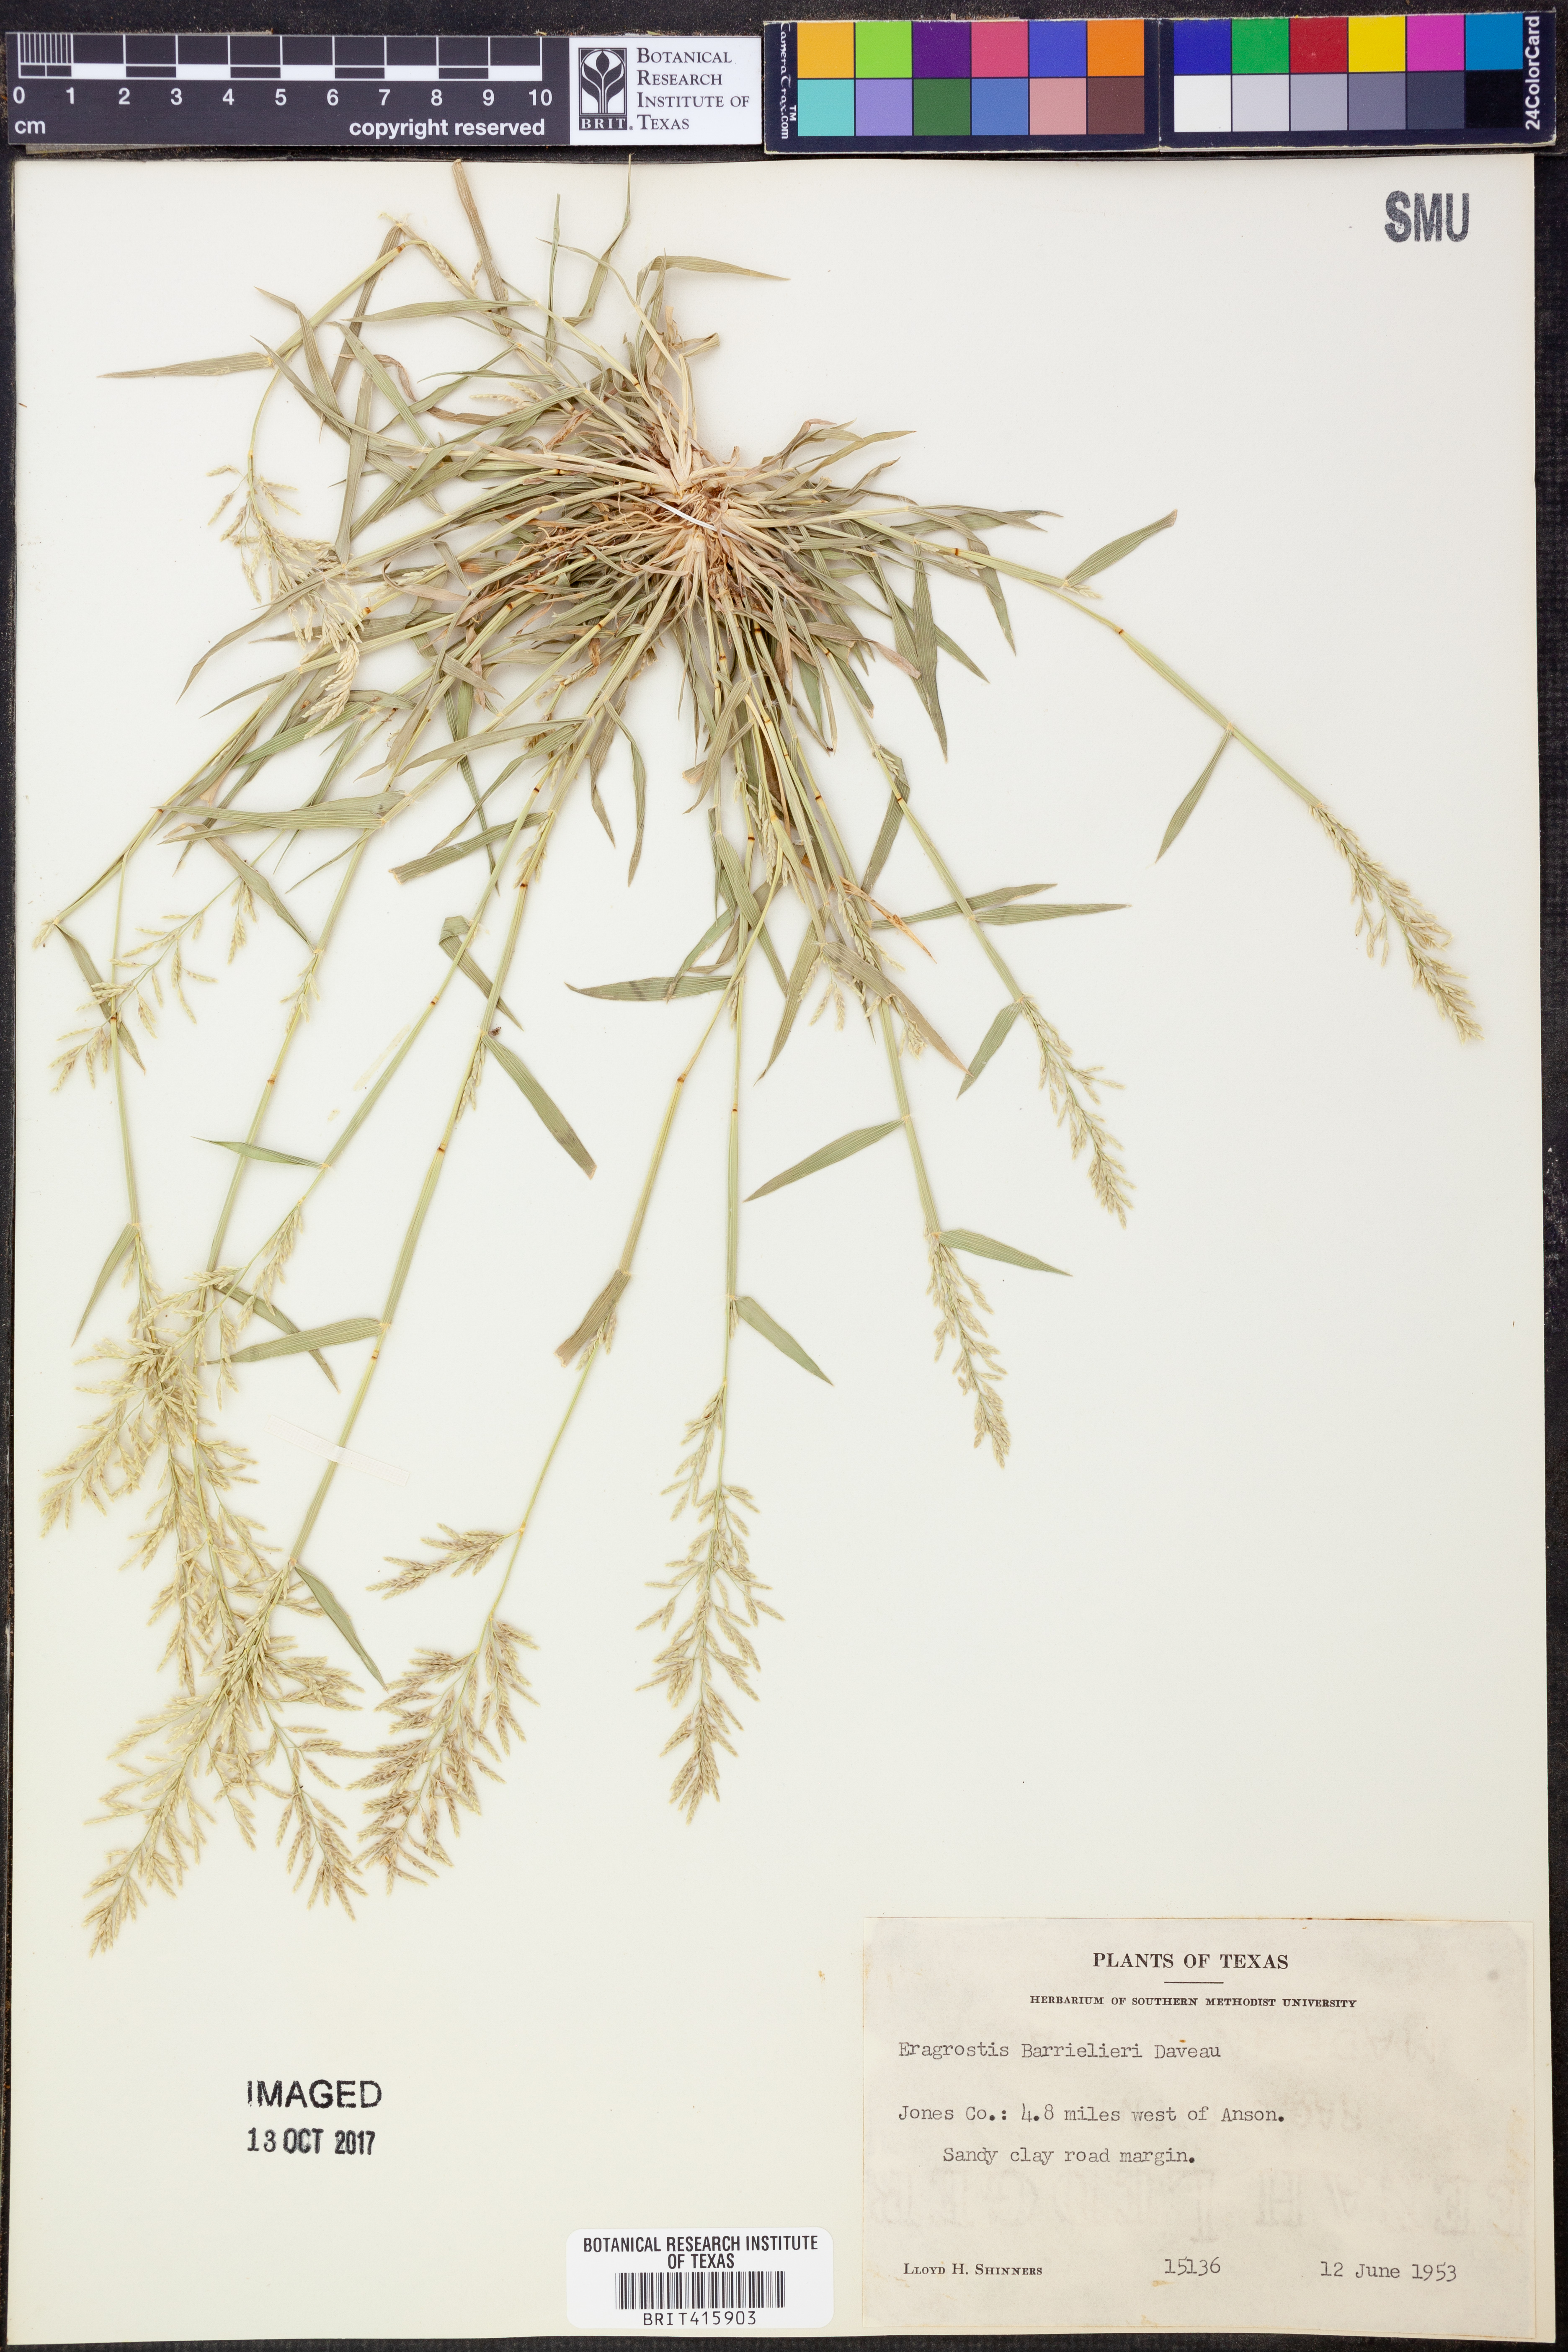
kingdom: Plantae
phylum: Tracheophyta
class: Liliopsida
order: Poales
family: Poaceae
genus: Eragrostis
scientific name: Eragrostis barrelieri
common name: Mediterranean lovegrass
